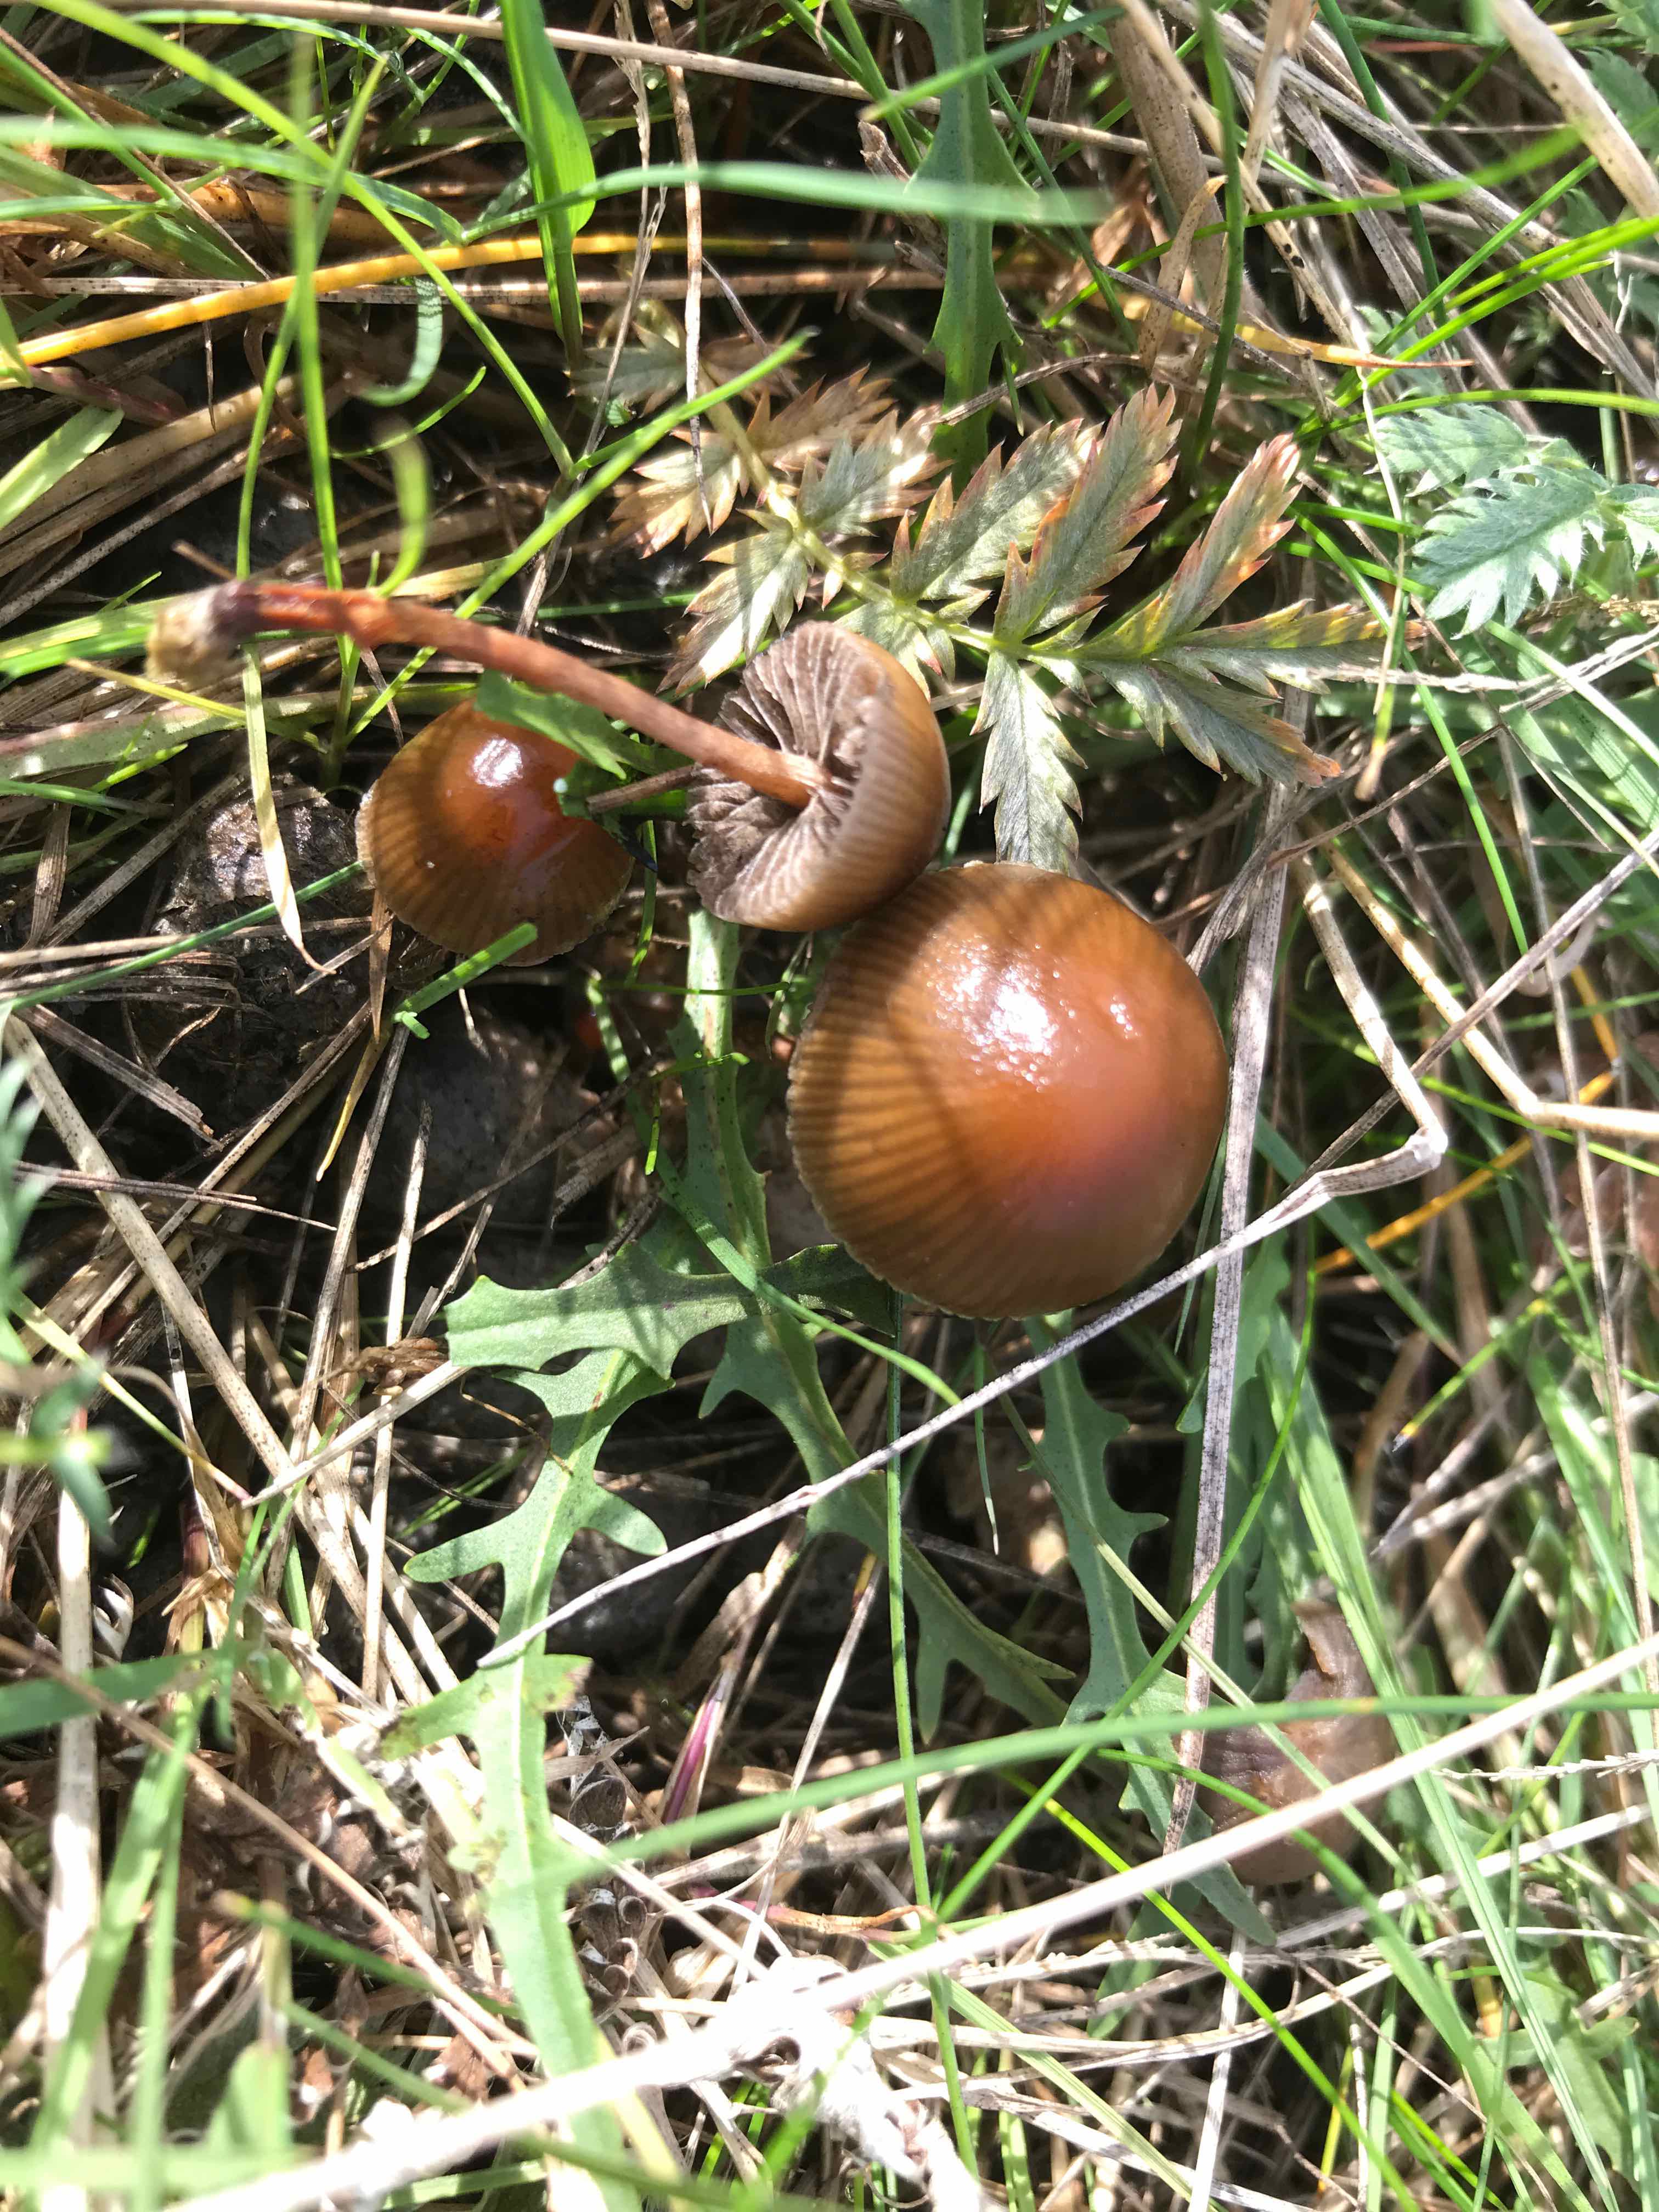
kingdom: Fungi
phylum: Basidiomycota
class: Agaricomycetes
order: Agaricales
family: Strophariaceae
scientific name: Strophariaceae
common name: bredbladfamilien
